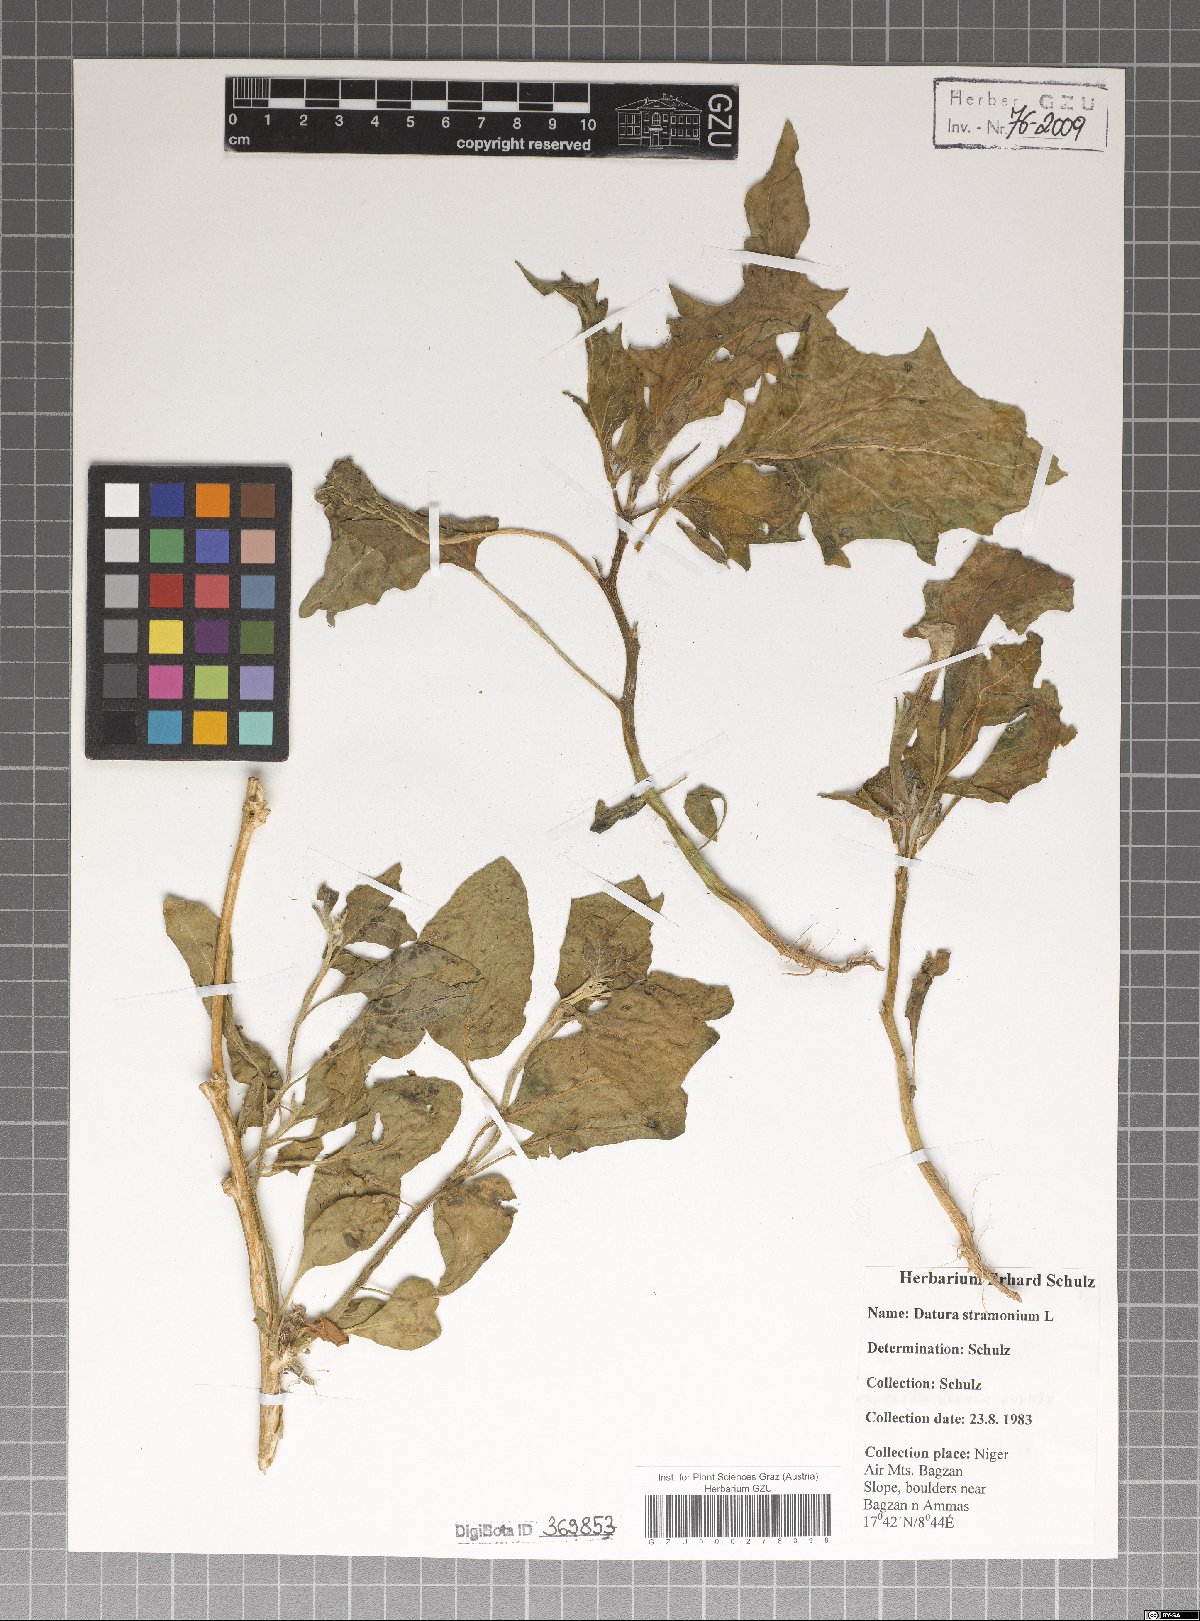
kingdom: Plantae
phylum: Tracheophyta
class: Magnoliopsida
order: Solanales
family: Solanaceae
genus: Datura
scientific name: Datura stramonium
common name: Thorn-apple
